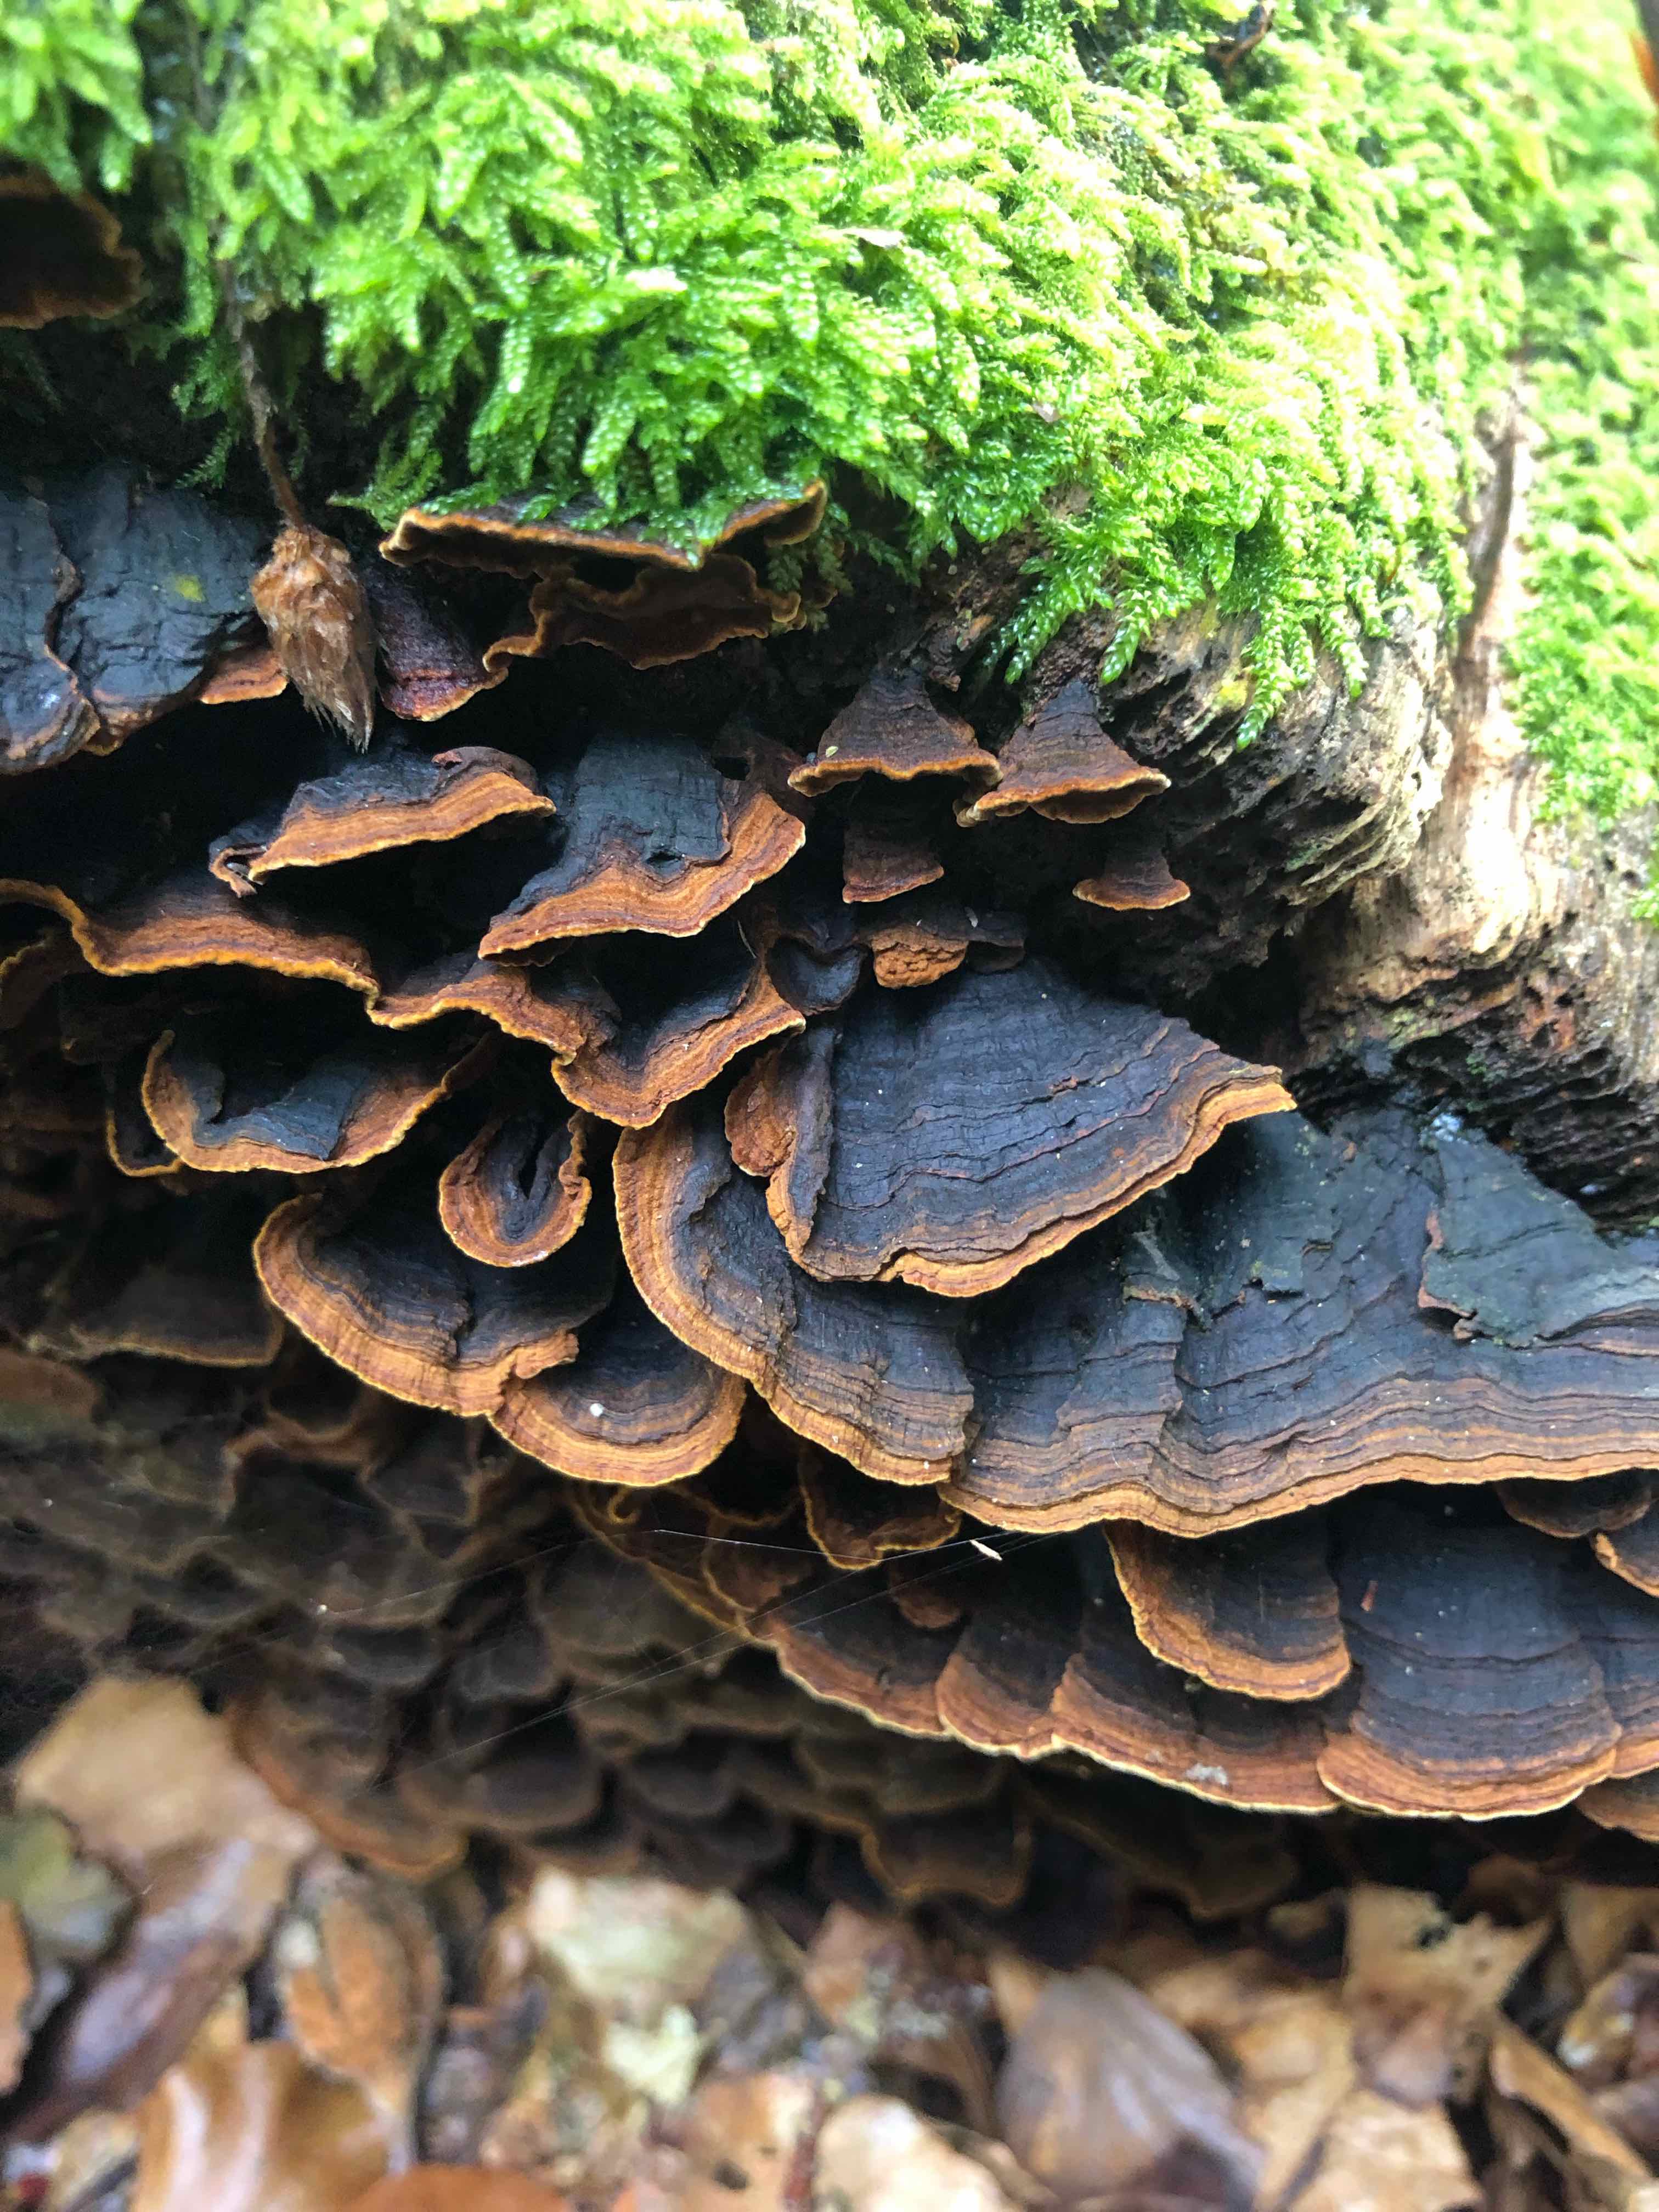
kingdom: Fungi
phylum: Basidiomycota
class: Agaricomycetes
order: Hymenochaetales
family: Hymenochaetaceae
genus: Hymenochaete
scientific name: Hymenochaete rubiginosa
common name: stiv ruslædersvamp
